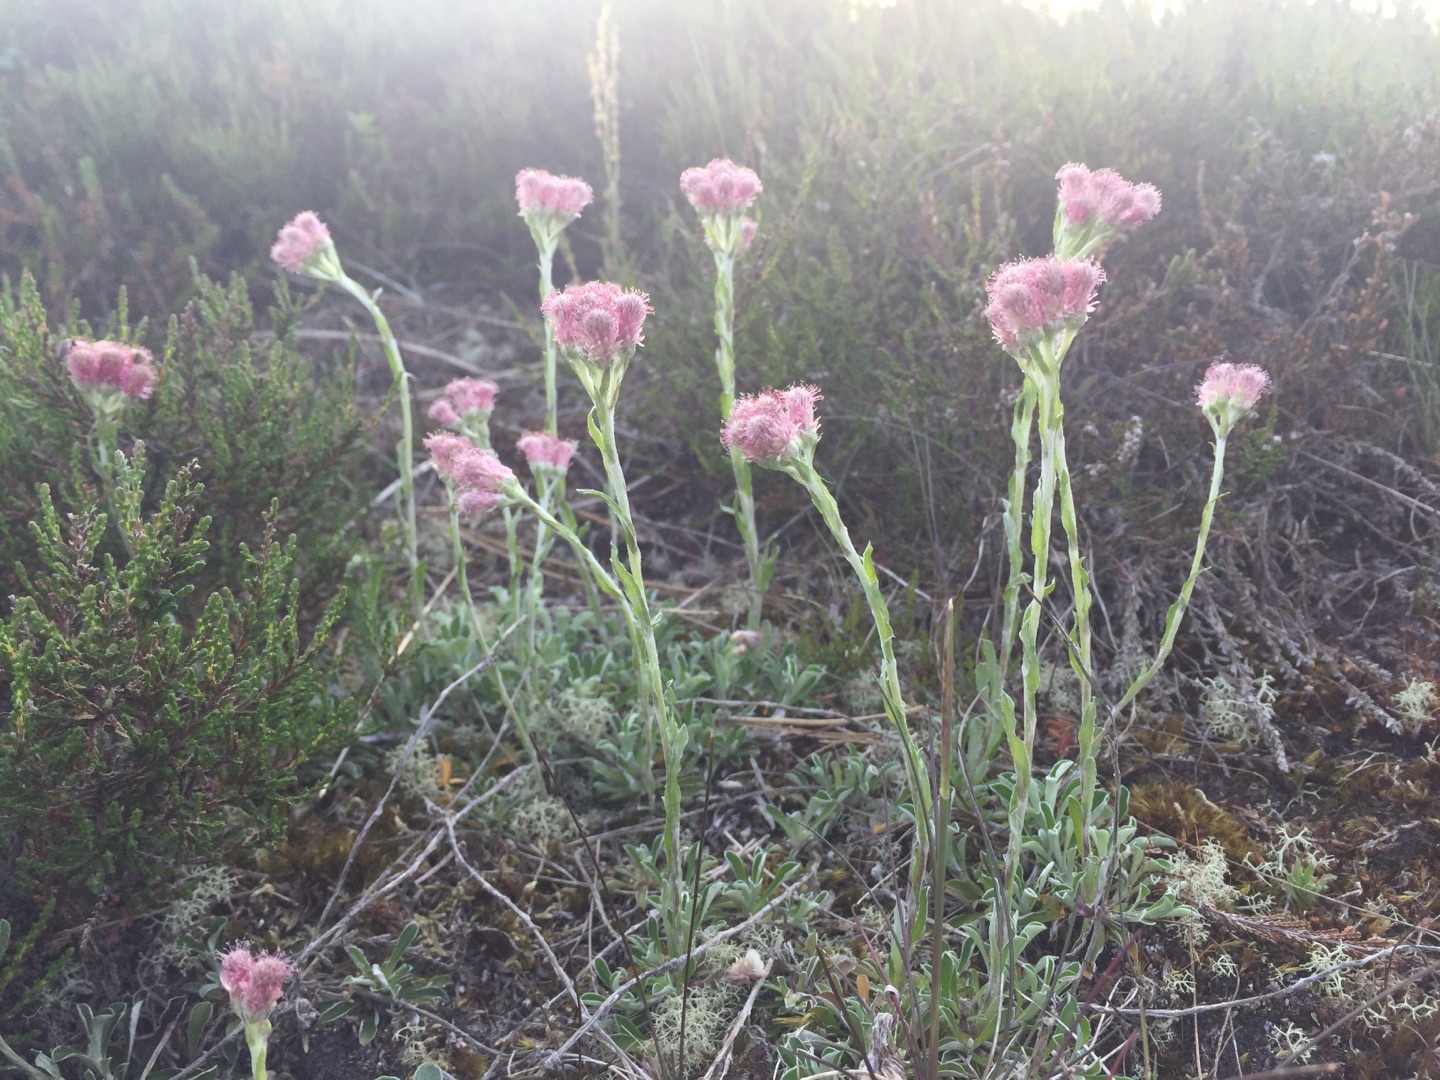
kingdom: Plantae
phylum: Tracheophyta
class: Magnoliopsida
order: Asterales
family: Asteraceae
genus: Antennaria
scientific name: Antennaria dioica
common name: Kattefod
